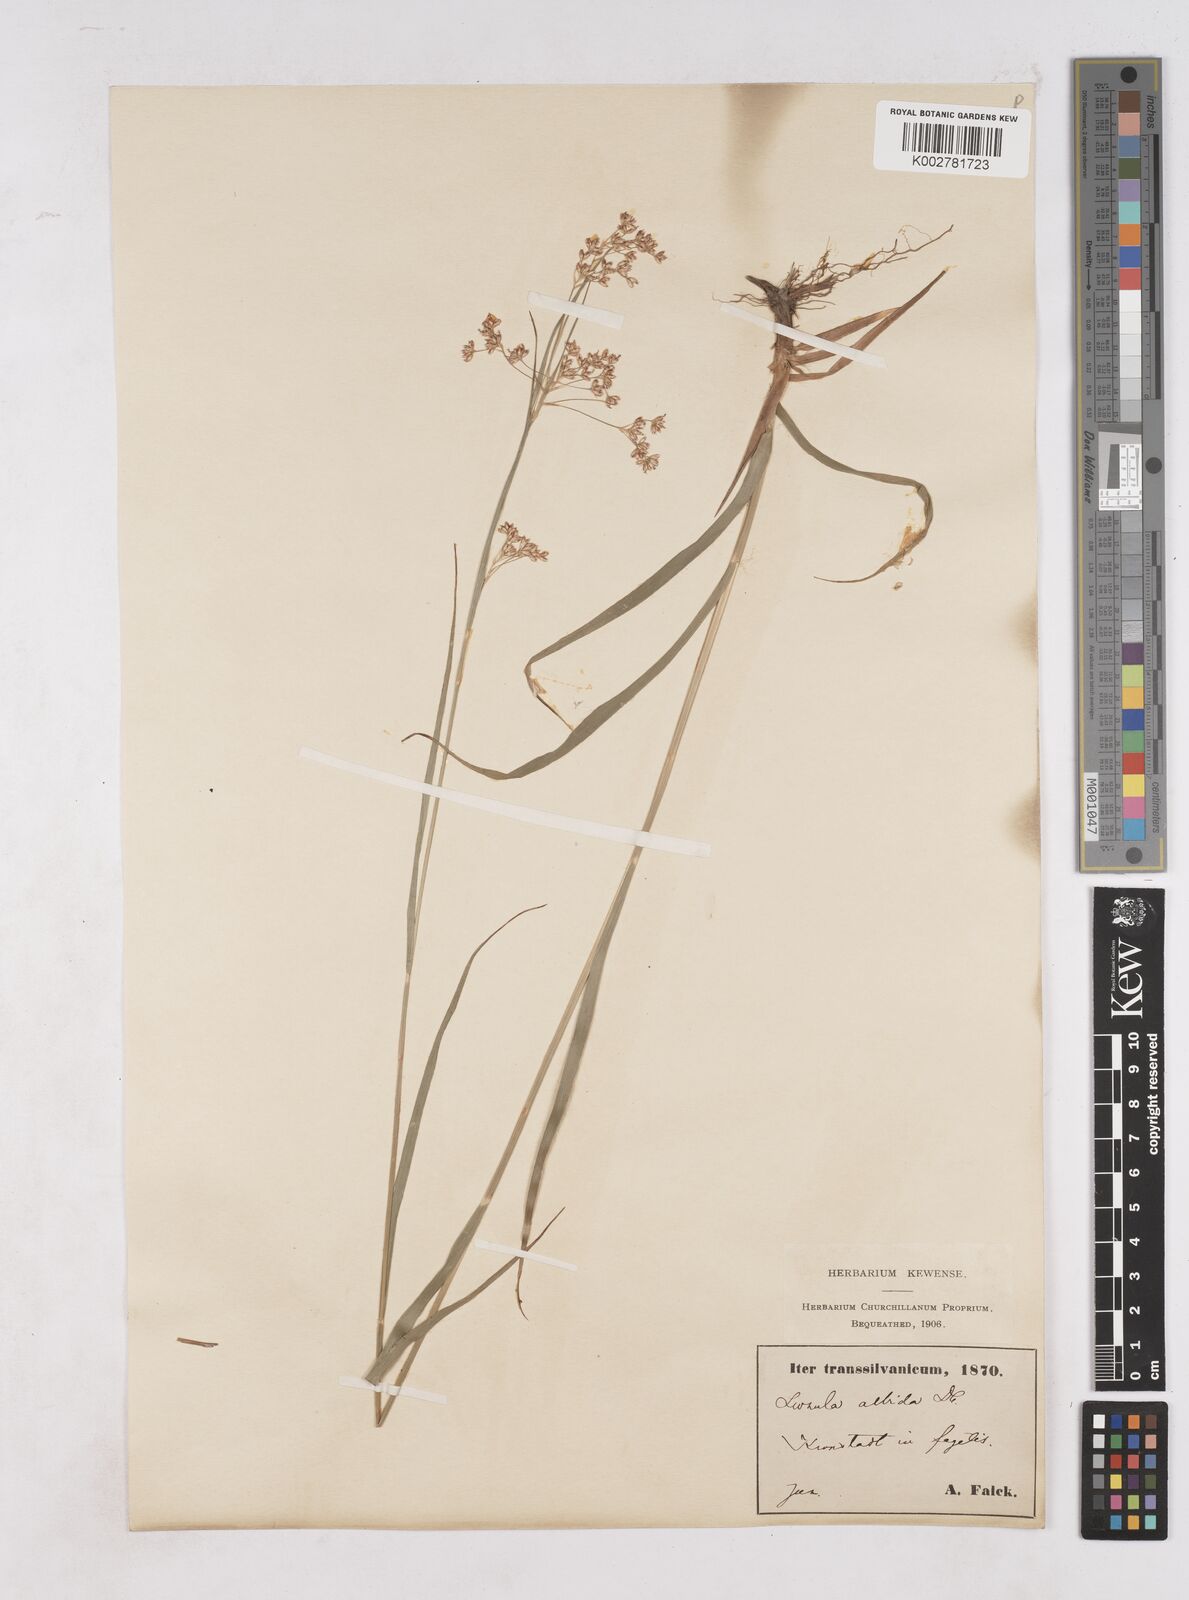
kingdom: Plantae
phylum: Tracheophyta
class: Liliopsida
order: Poales
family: Juncaceae
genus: Luzula
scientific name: Luzula luzuloides
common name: White wood-rush
